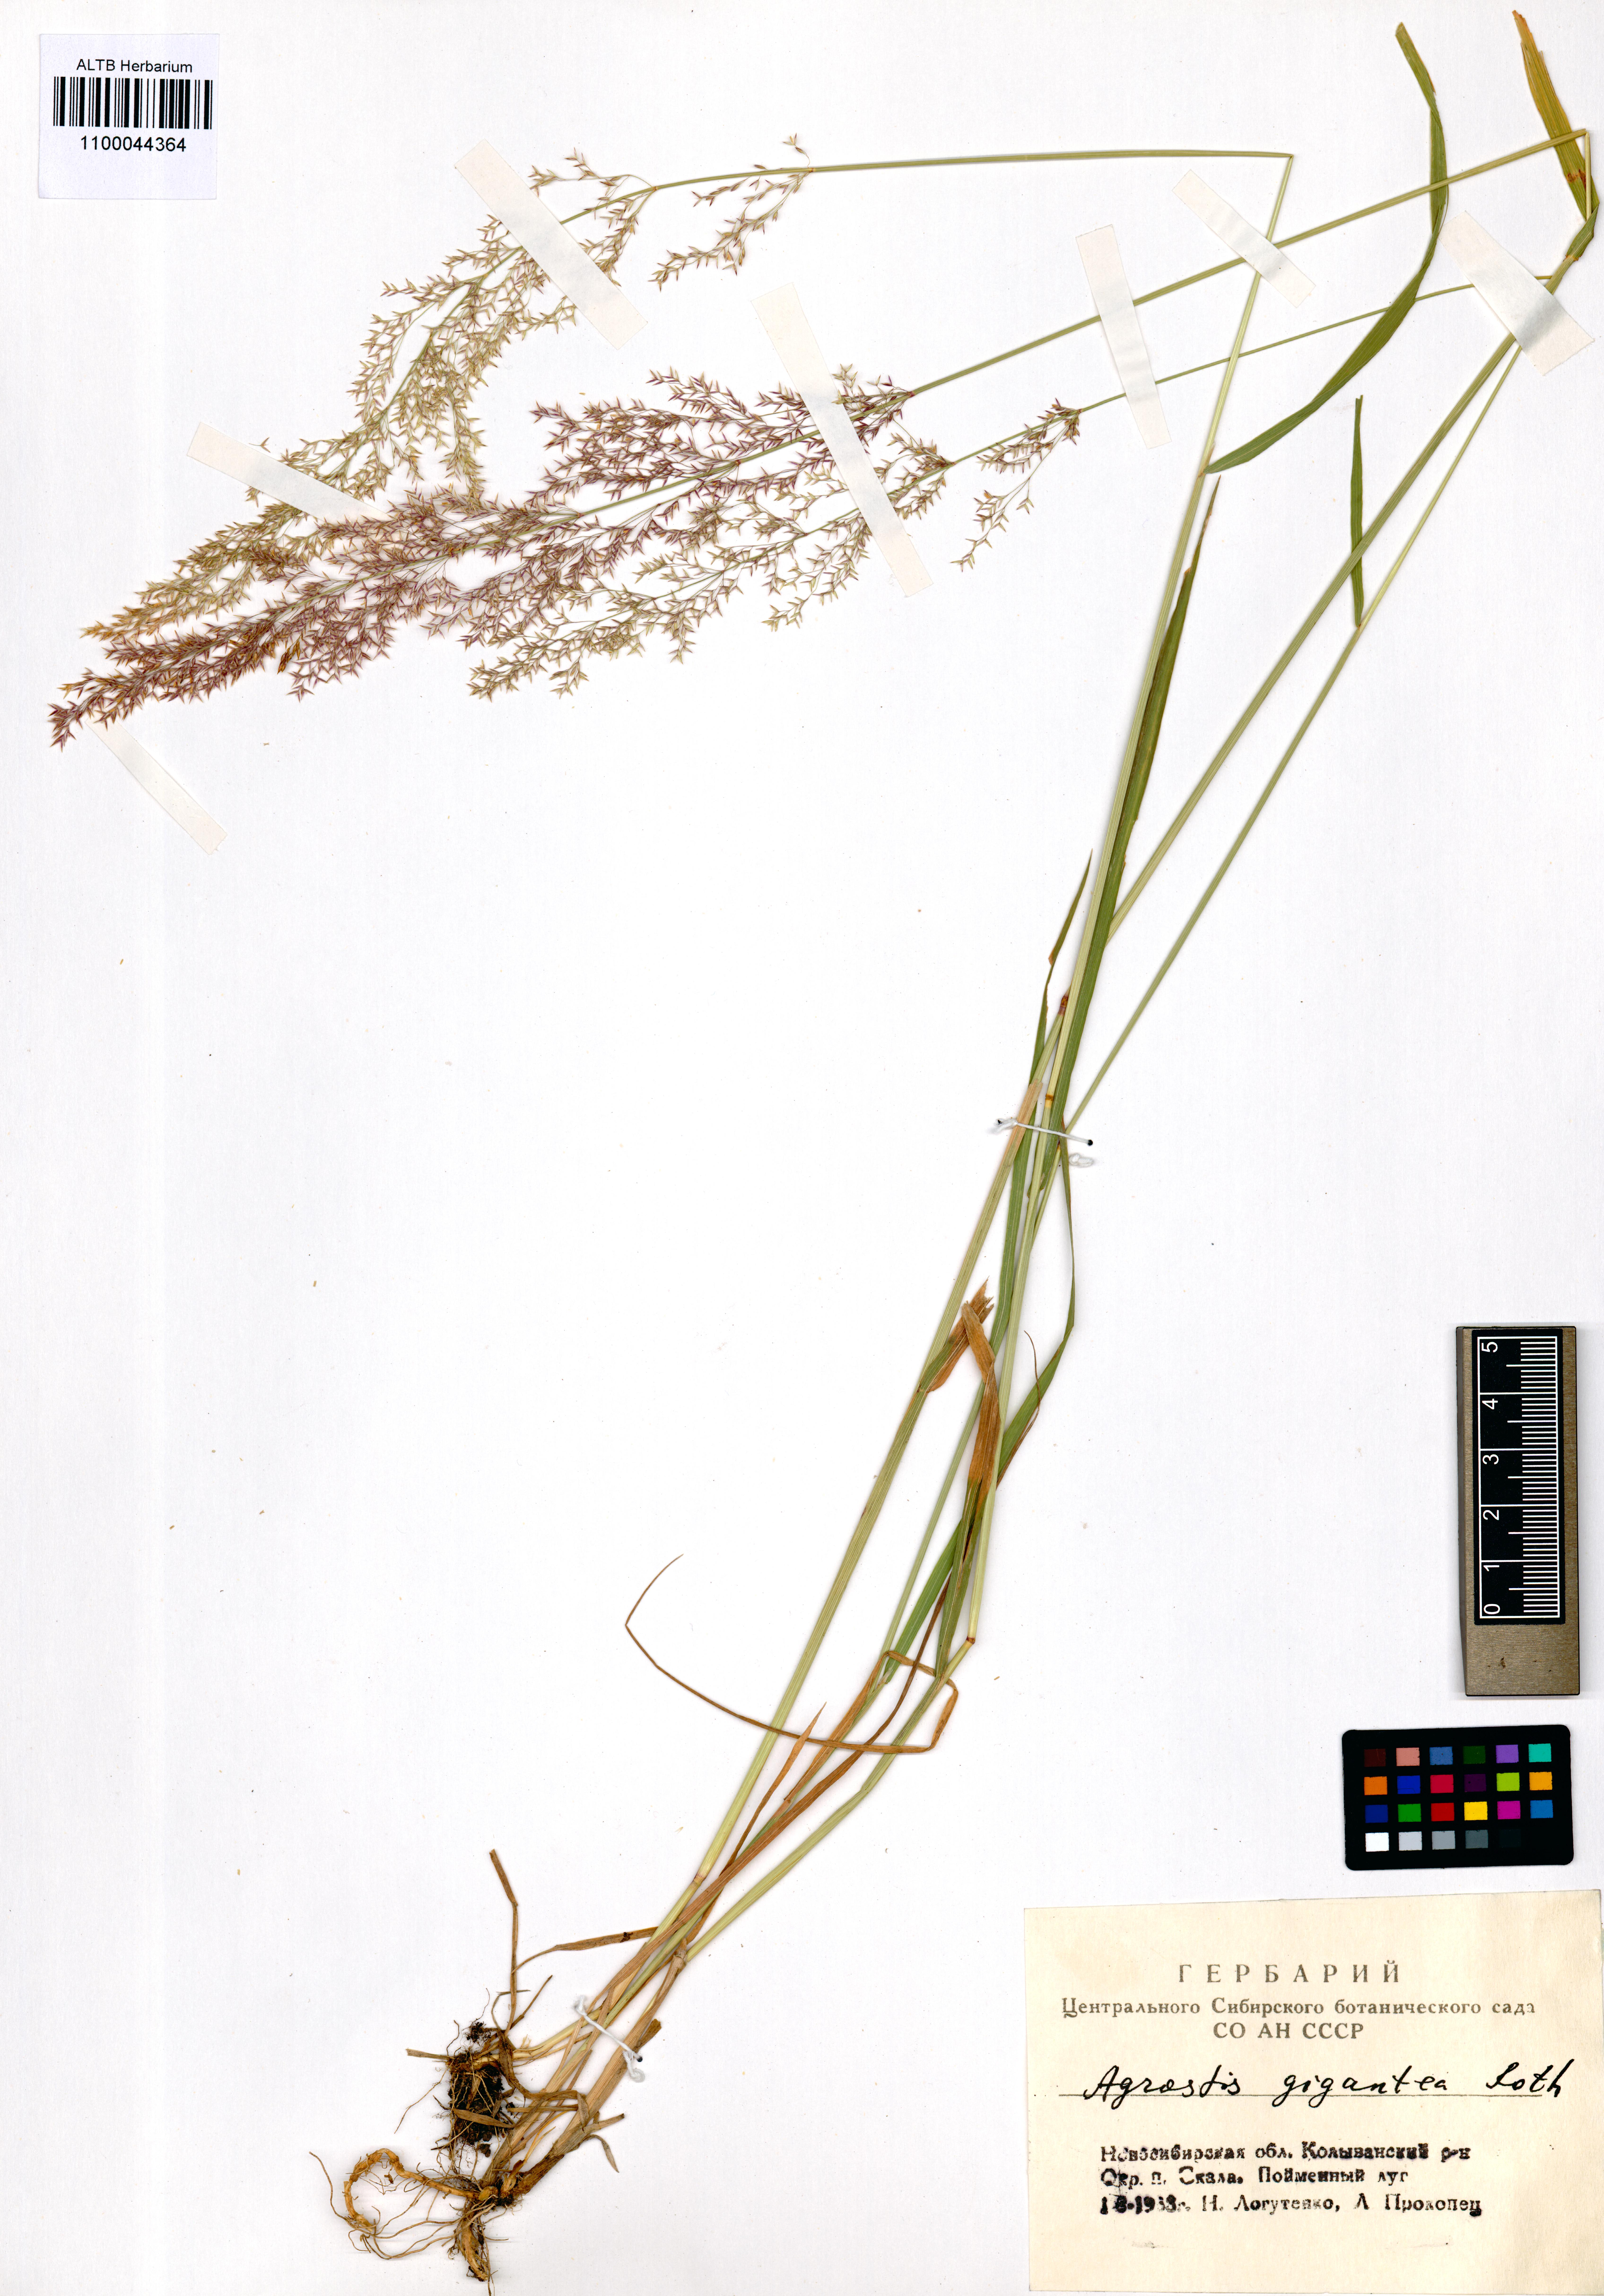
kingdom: Plantae
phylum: Tracheophyta
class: Liliopsida
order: Poales
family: Poaceae
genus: Agrostis
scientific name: Agrostis gigantea
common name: Black bent
